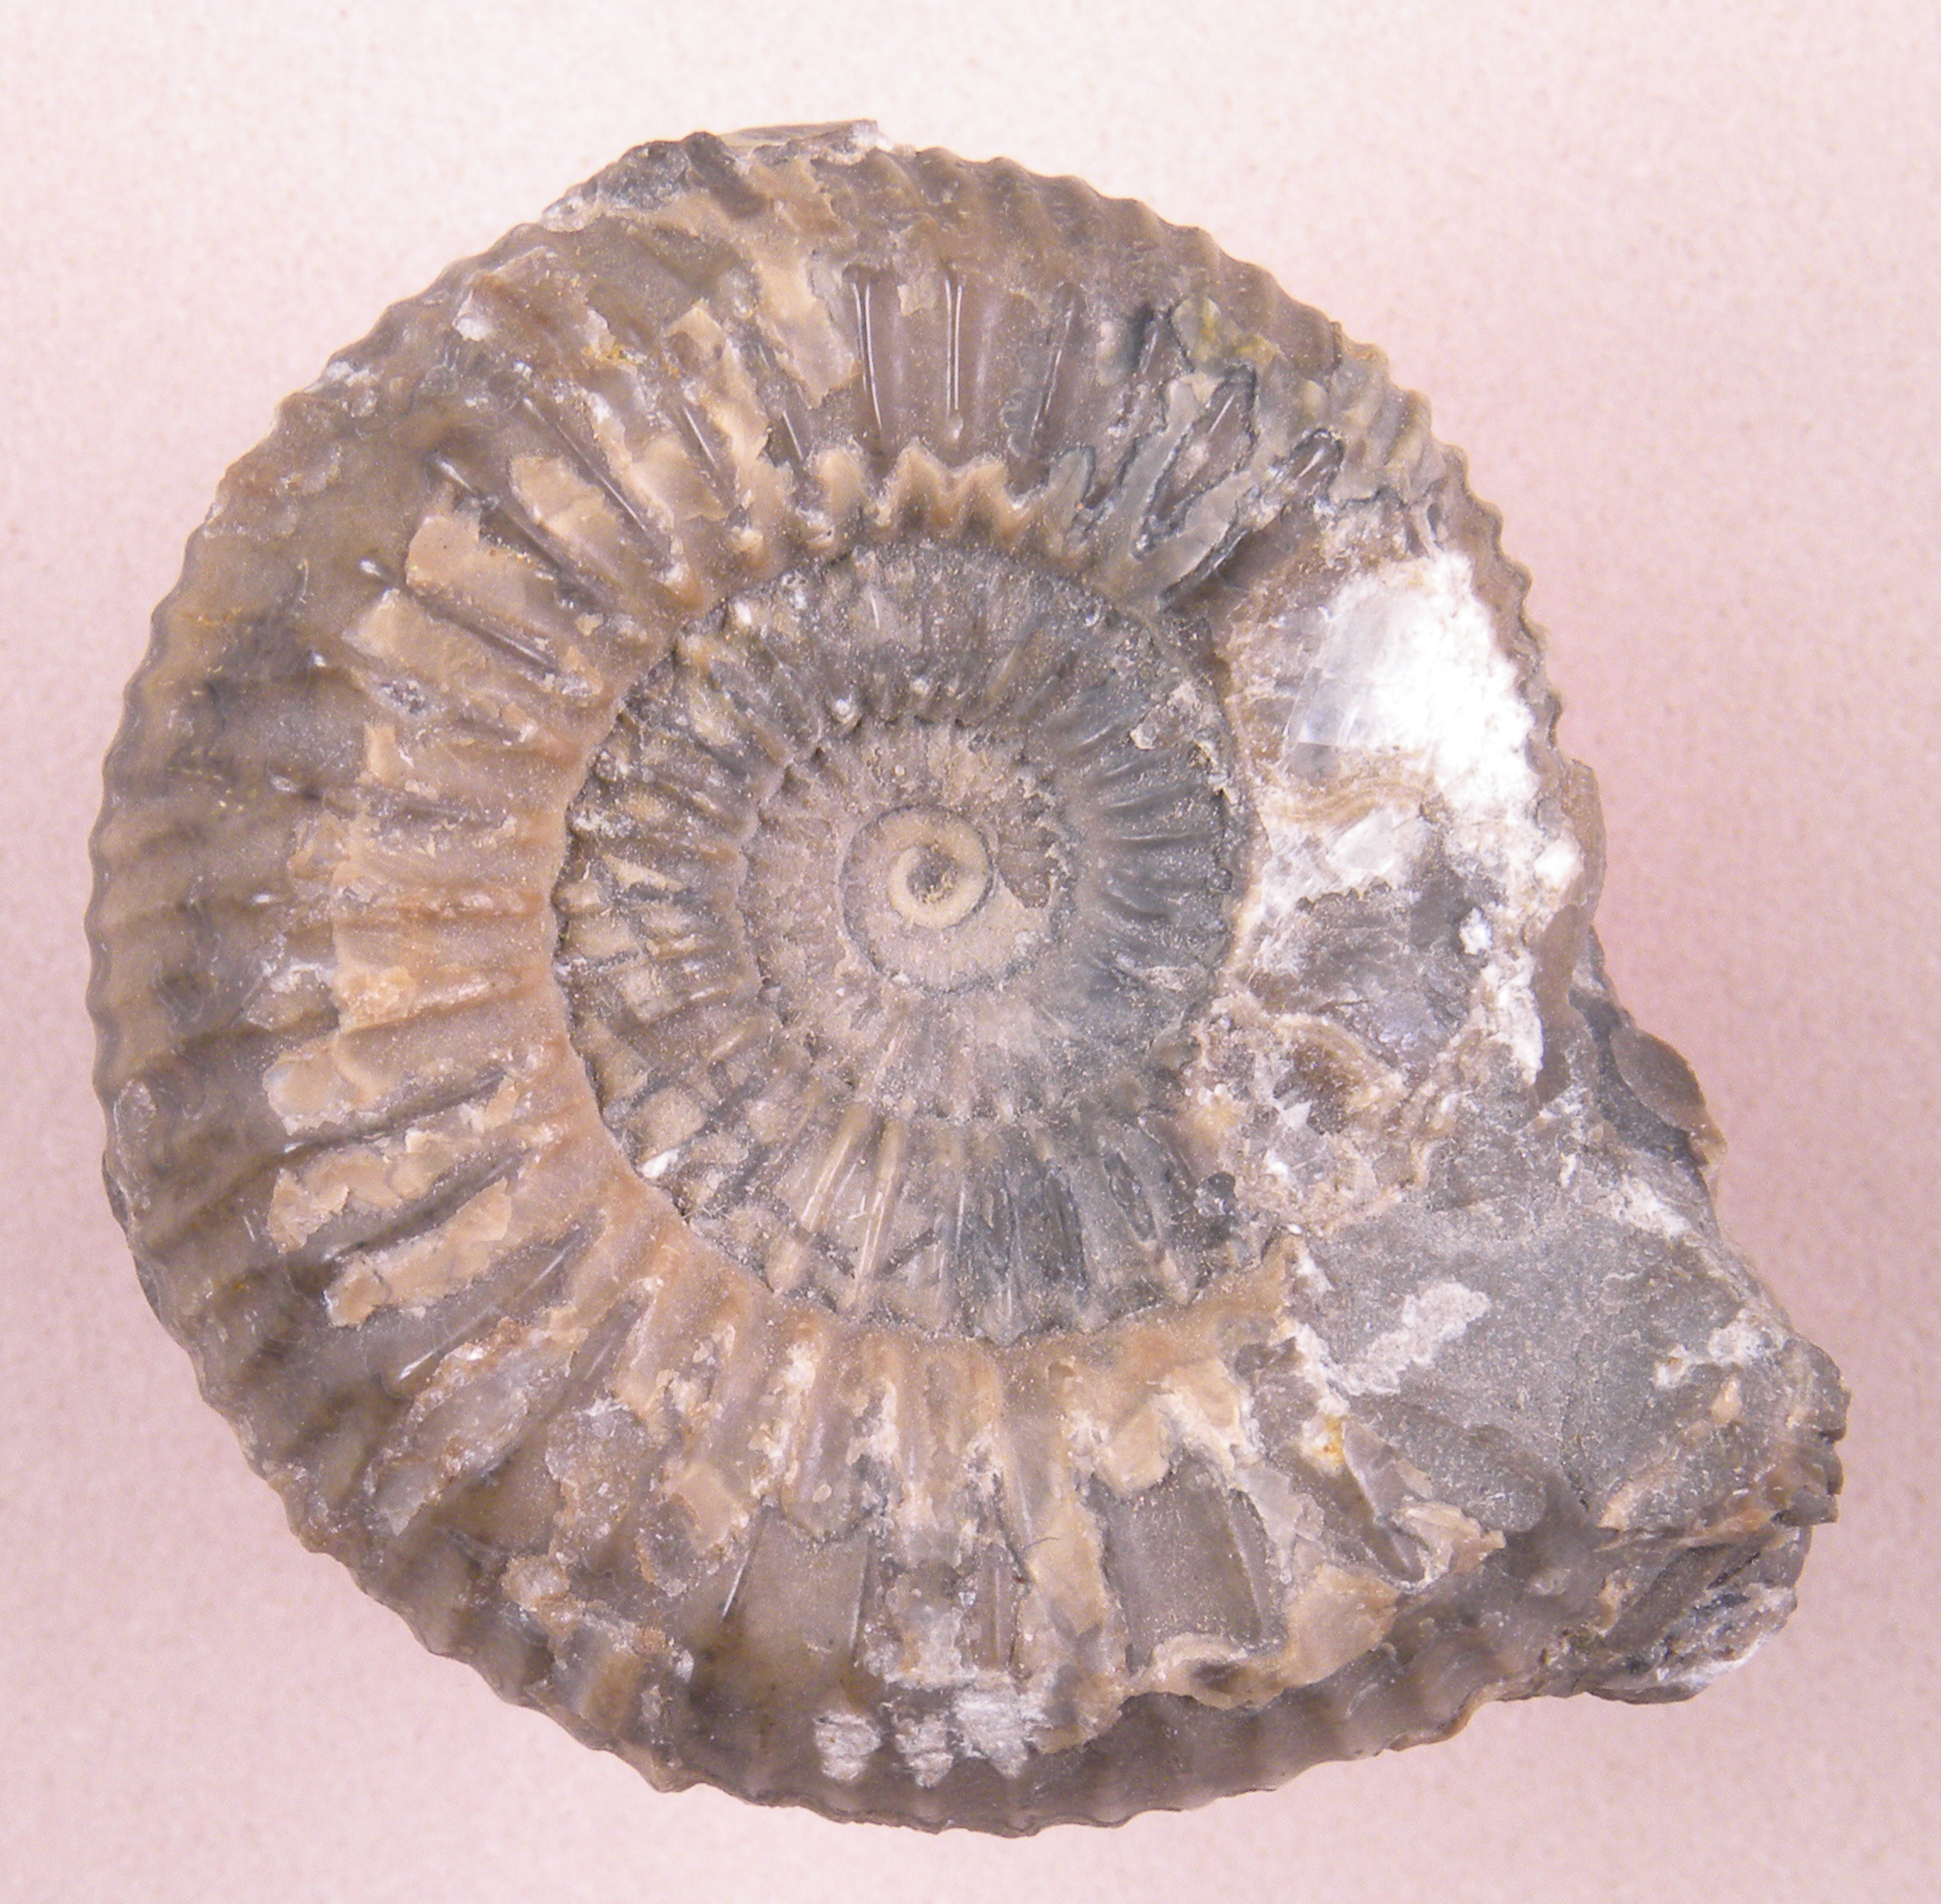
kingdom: Animalia
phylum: Mollusca
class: Cephalopoda
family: Dactylioceratidae
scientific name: Dactylioceratidae
